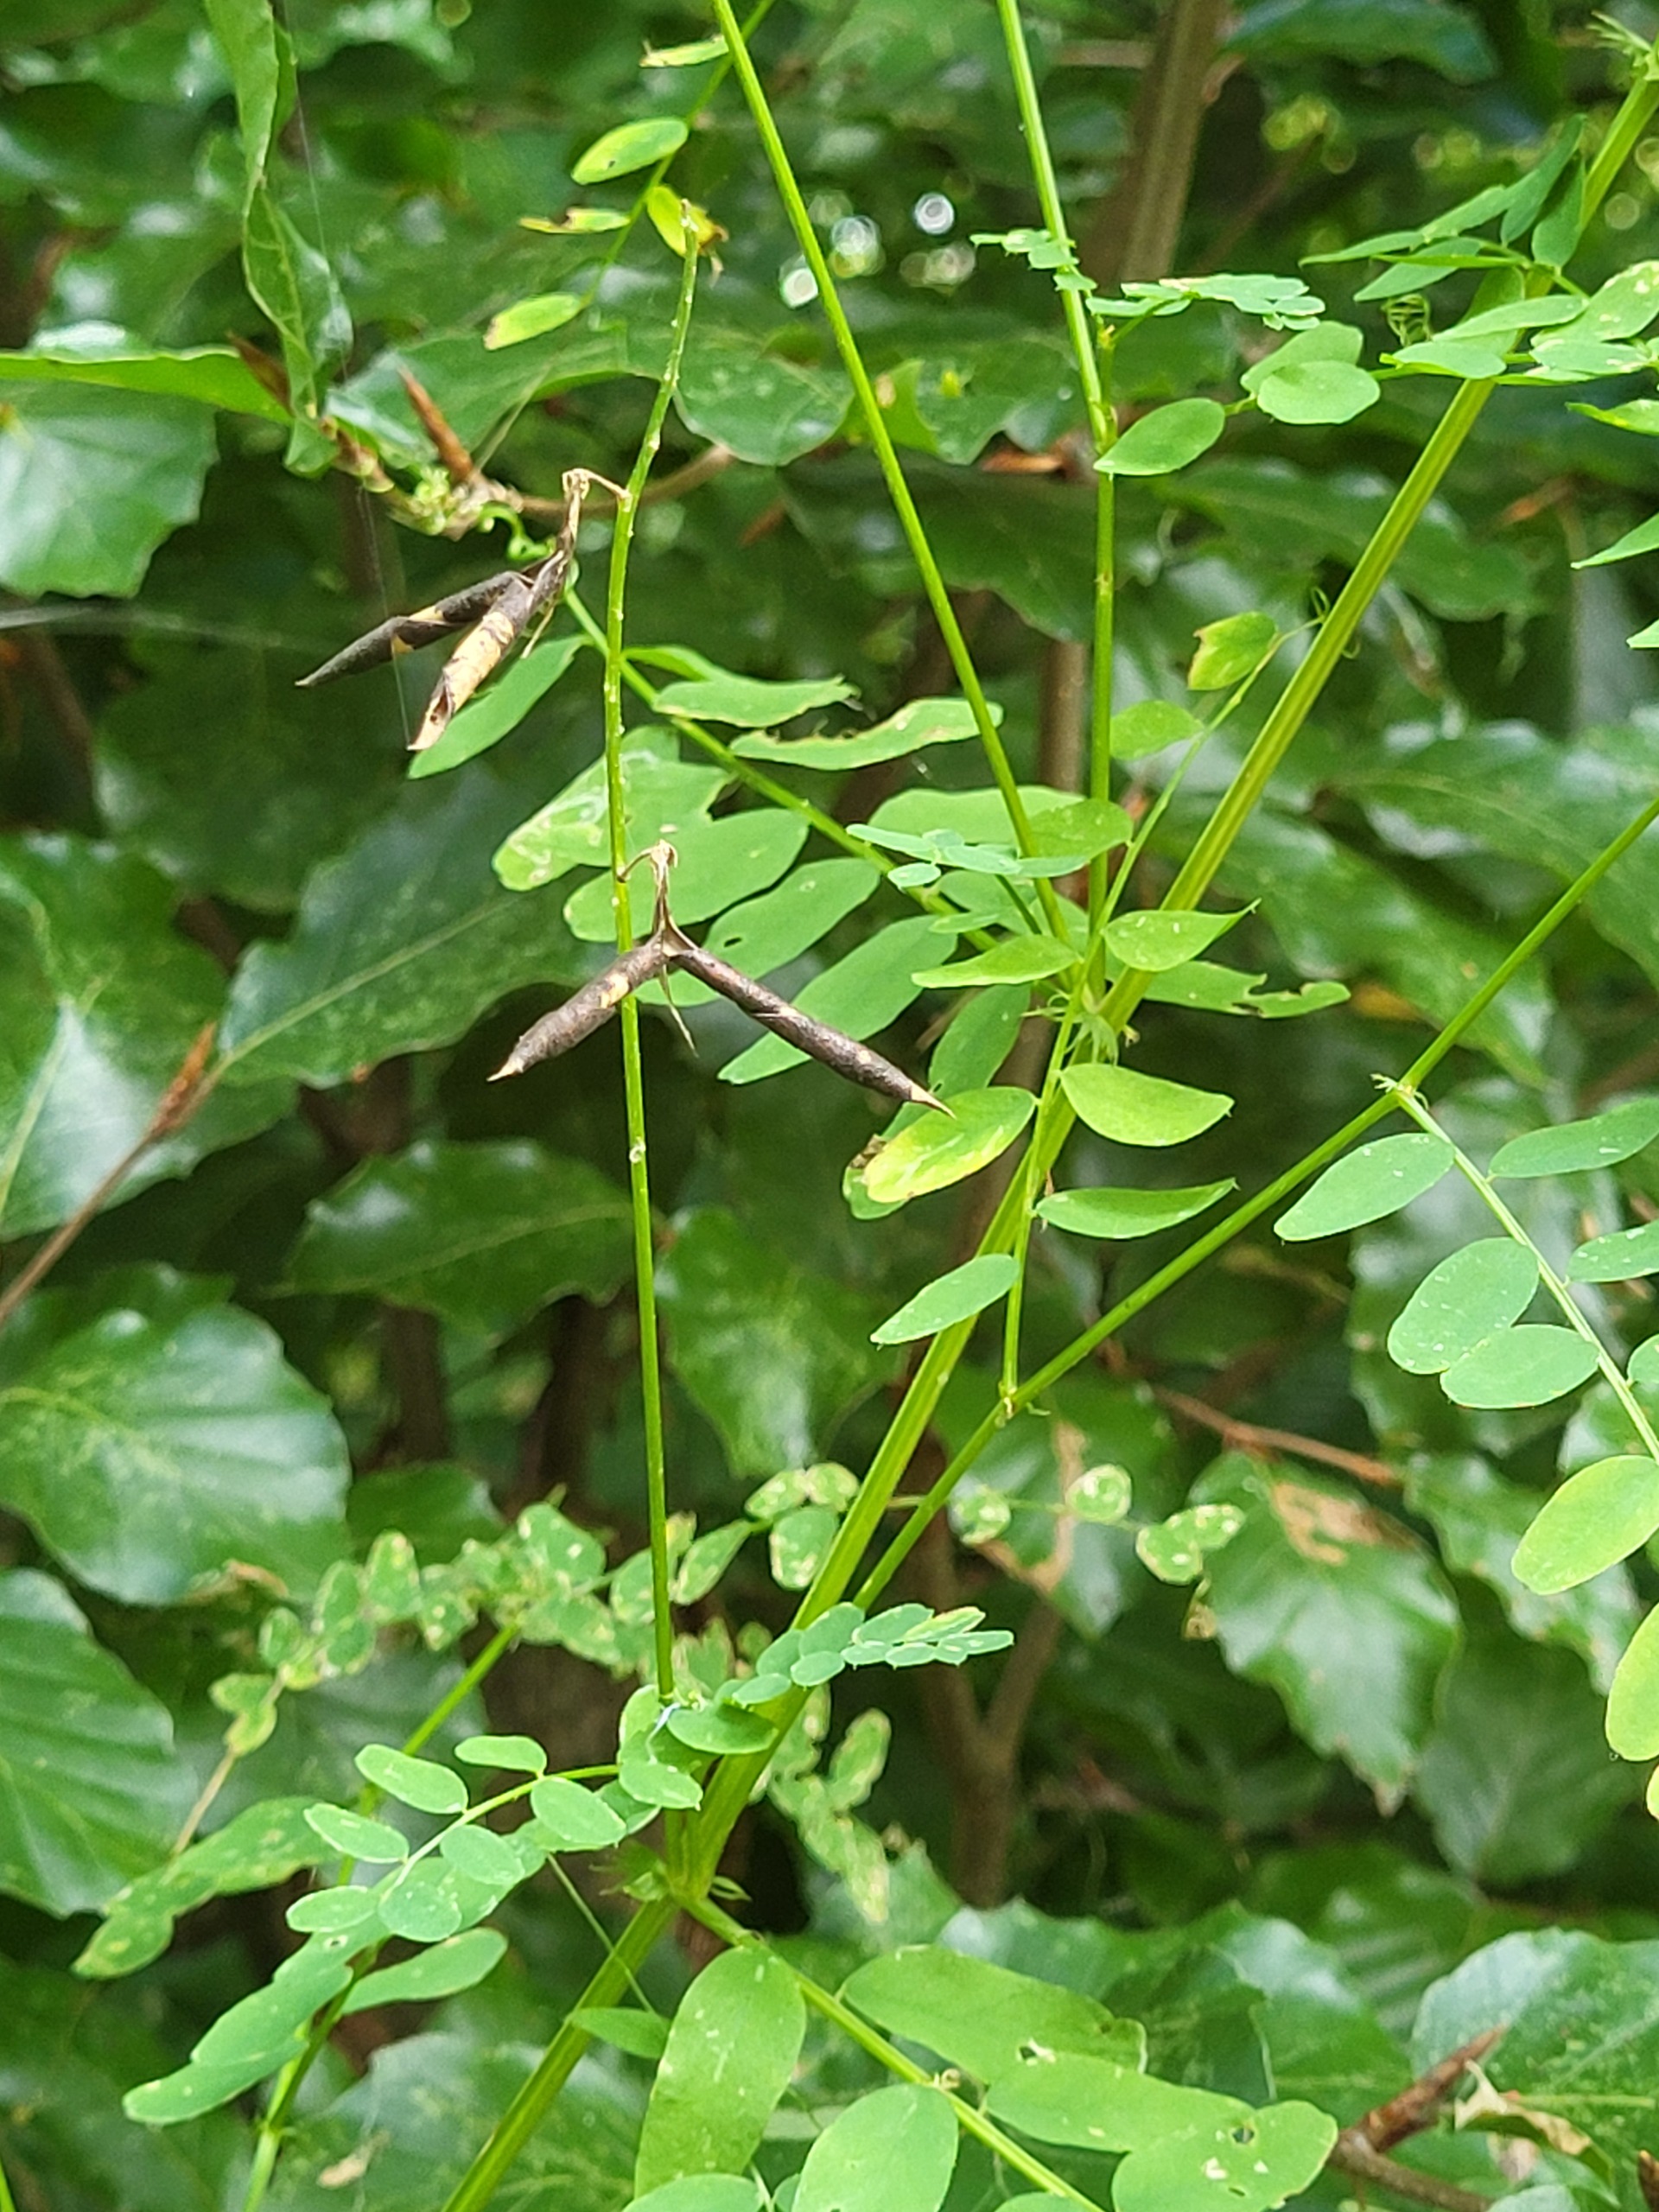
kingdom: Plantae
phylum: Tracheophyta
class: Magnoliopsida
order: Fabales
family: Fabaceae
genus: Vicia
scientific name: Vicia sylvatica
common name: Skov-vikke
